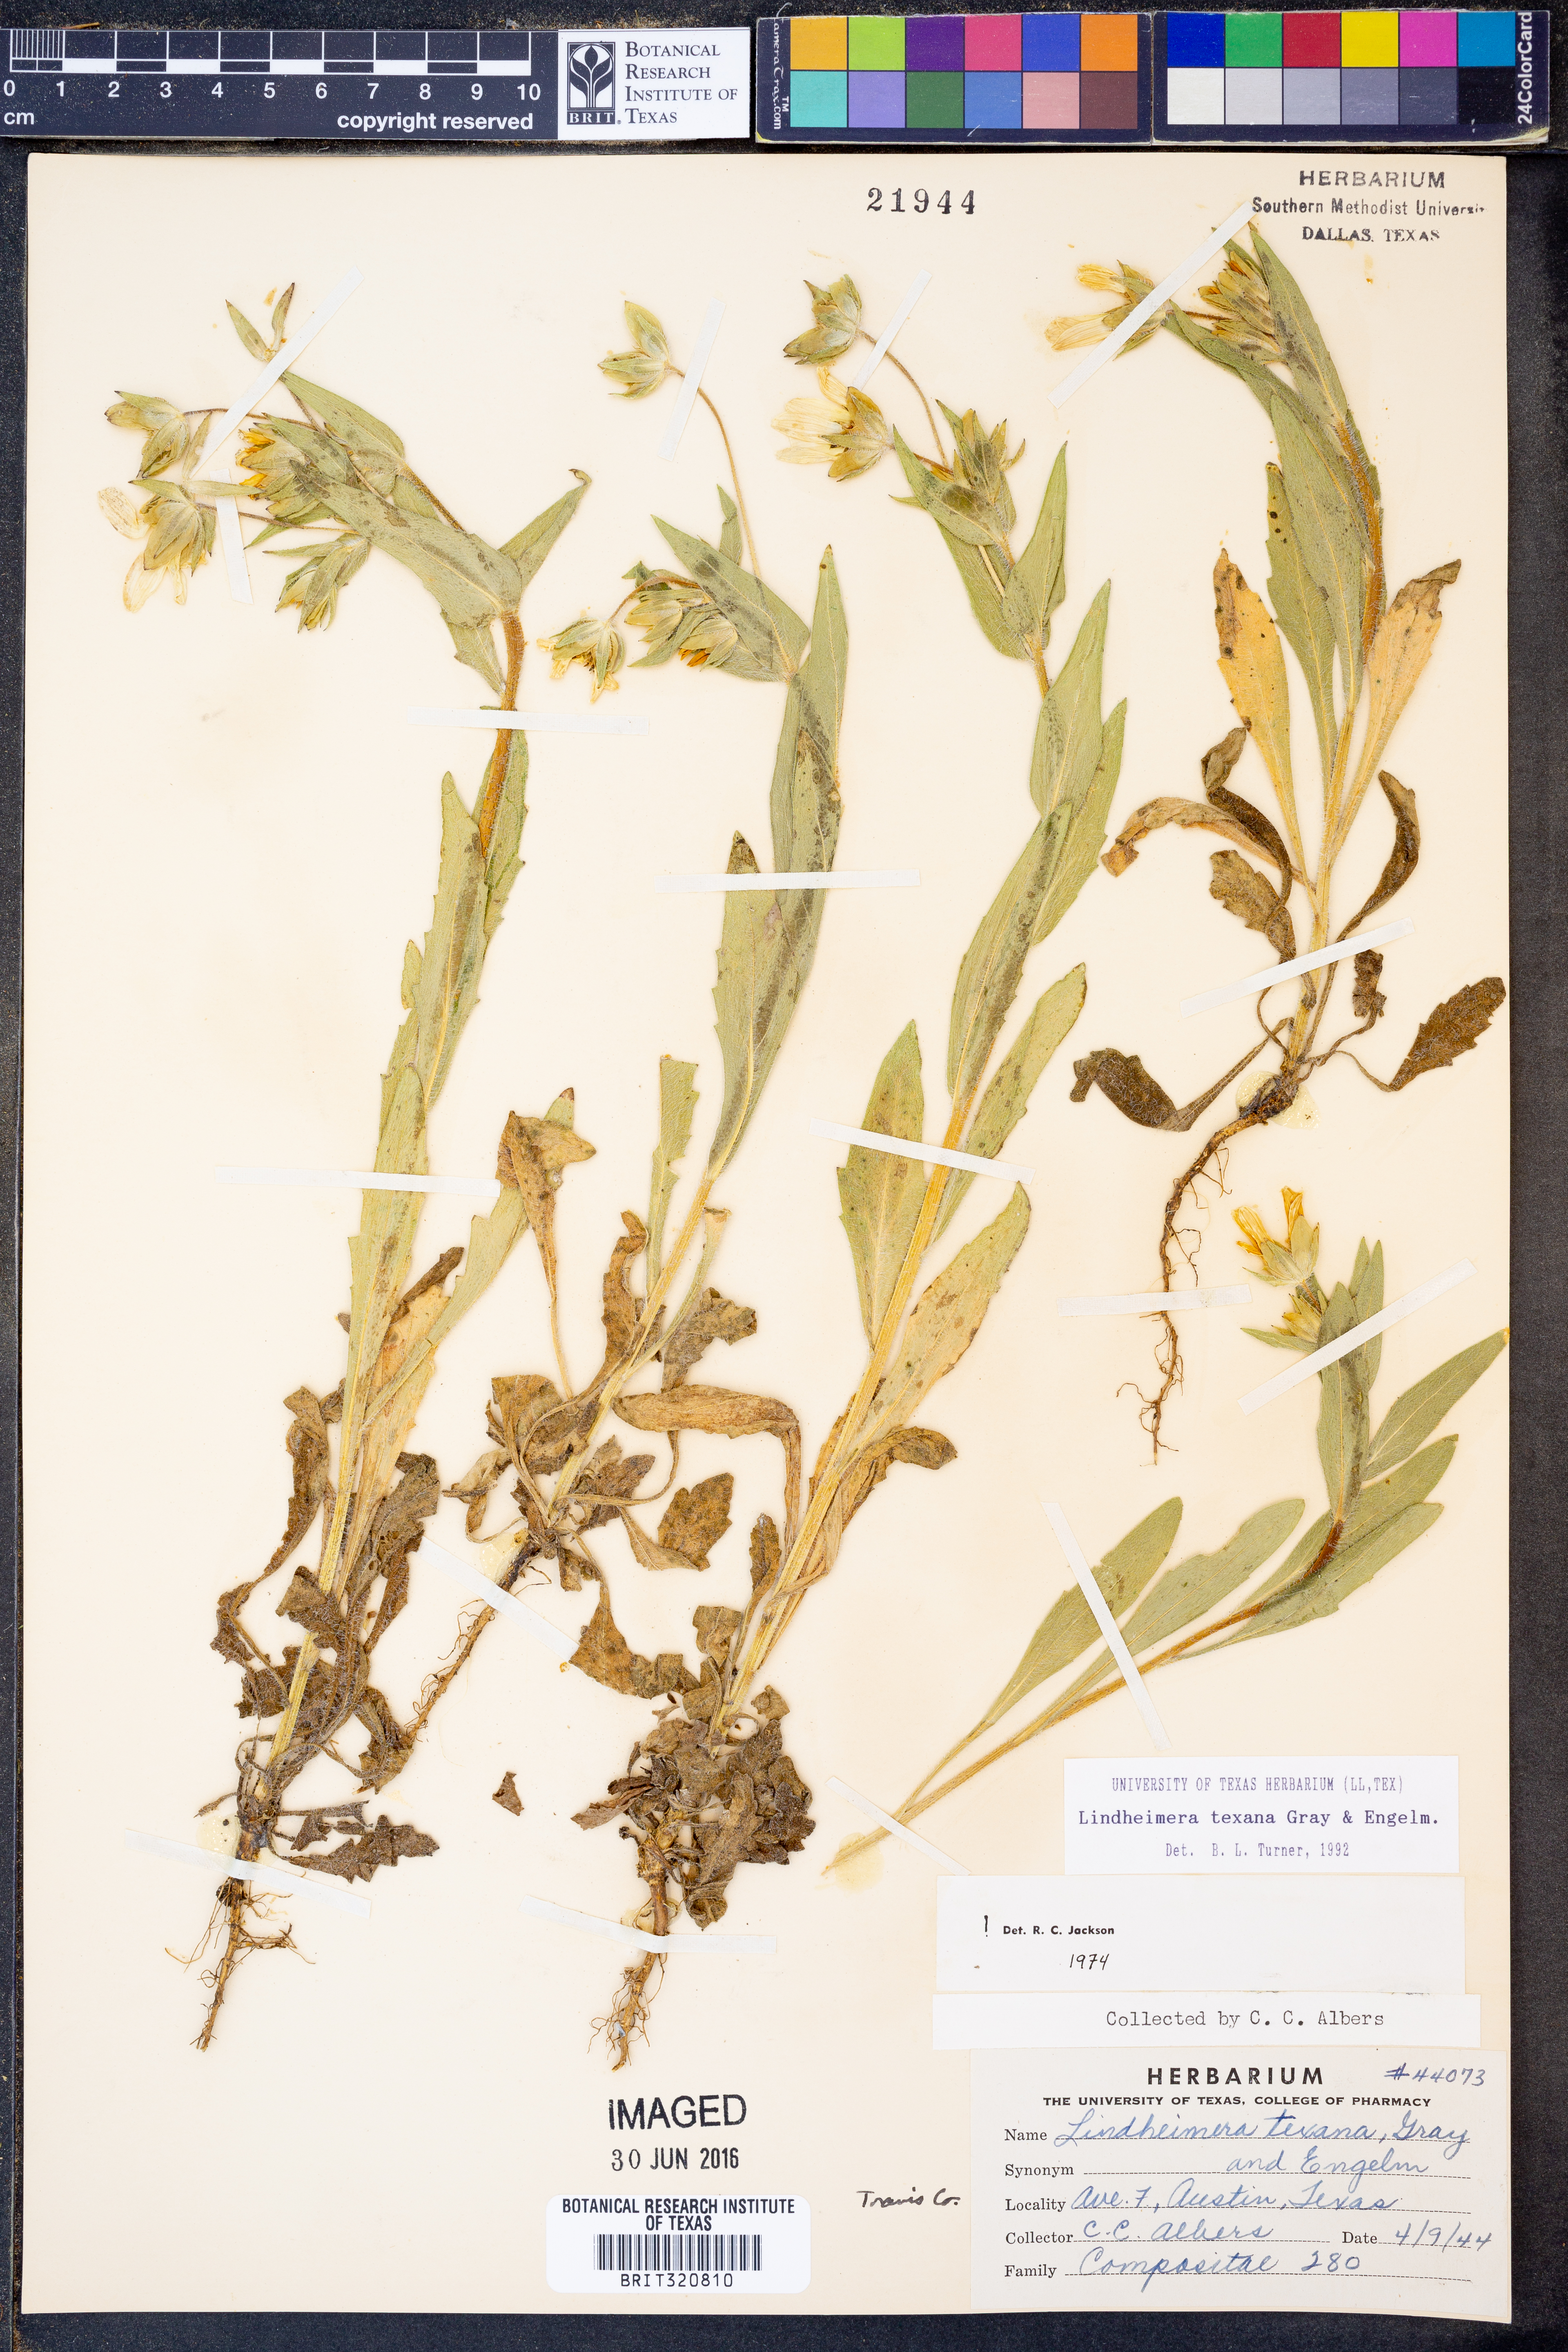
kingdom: Plantae
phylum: Tracheophyta
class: Magnoliopsida
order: Asterales
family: Asteraceae
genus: Lindheimera
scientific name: Lindheimera texana
